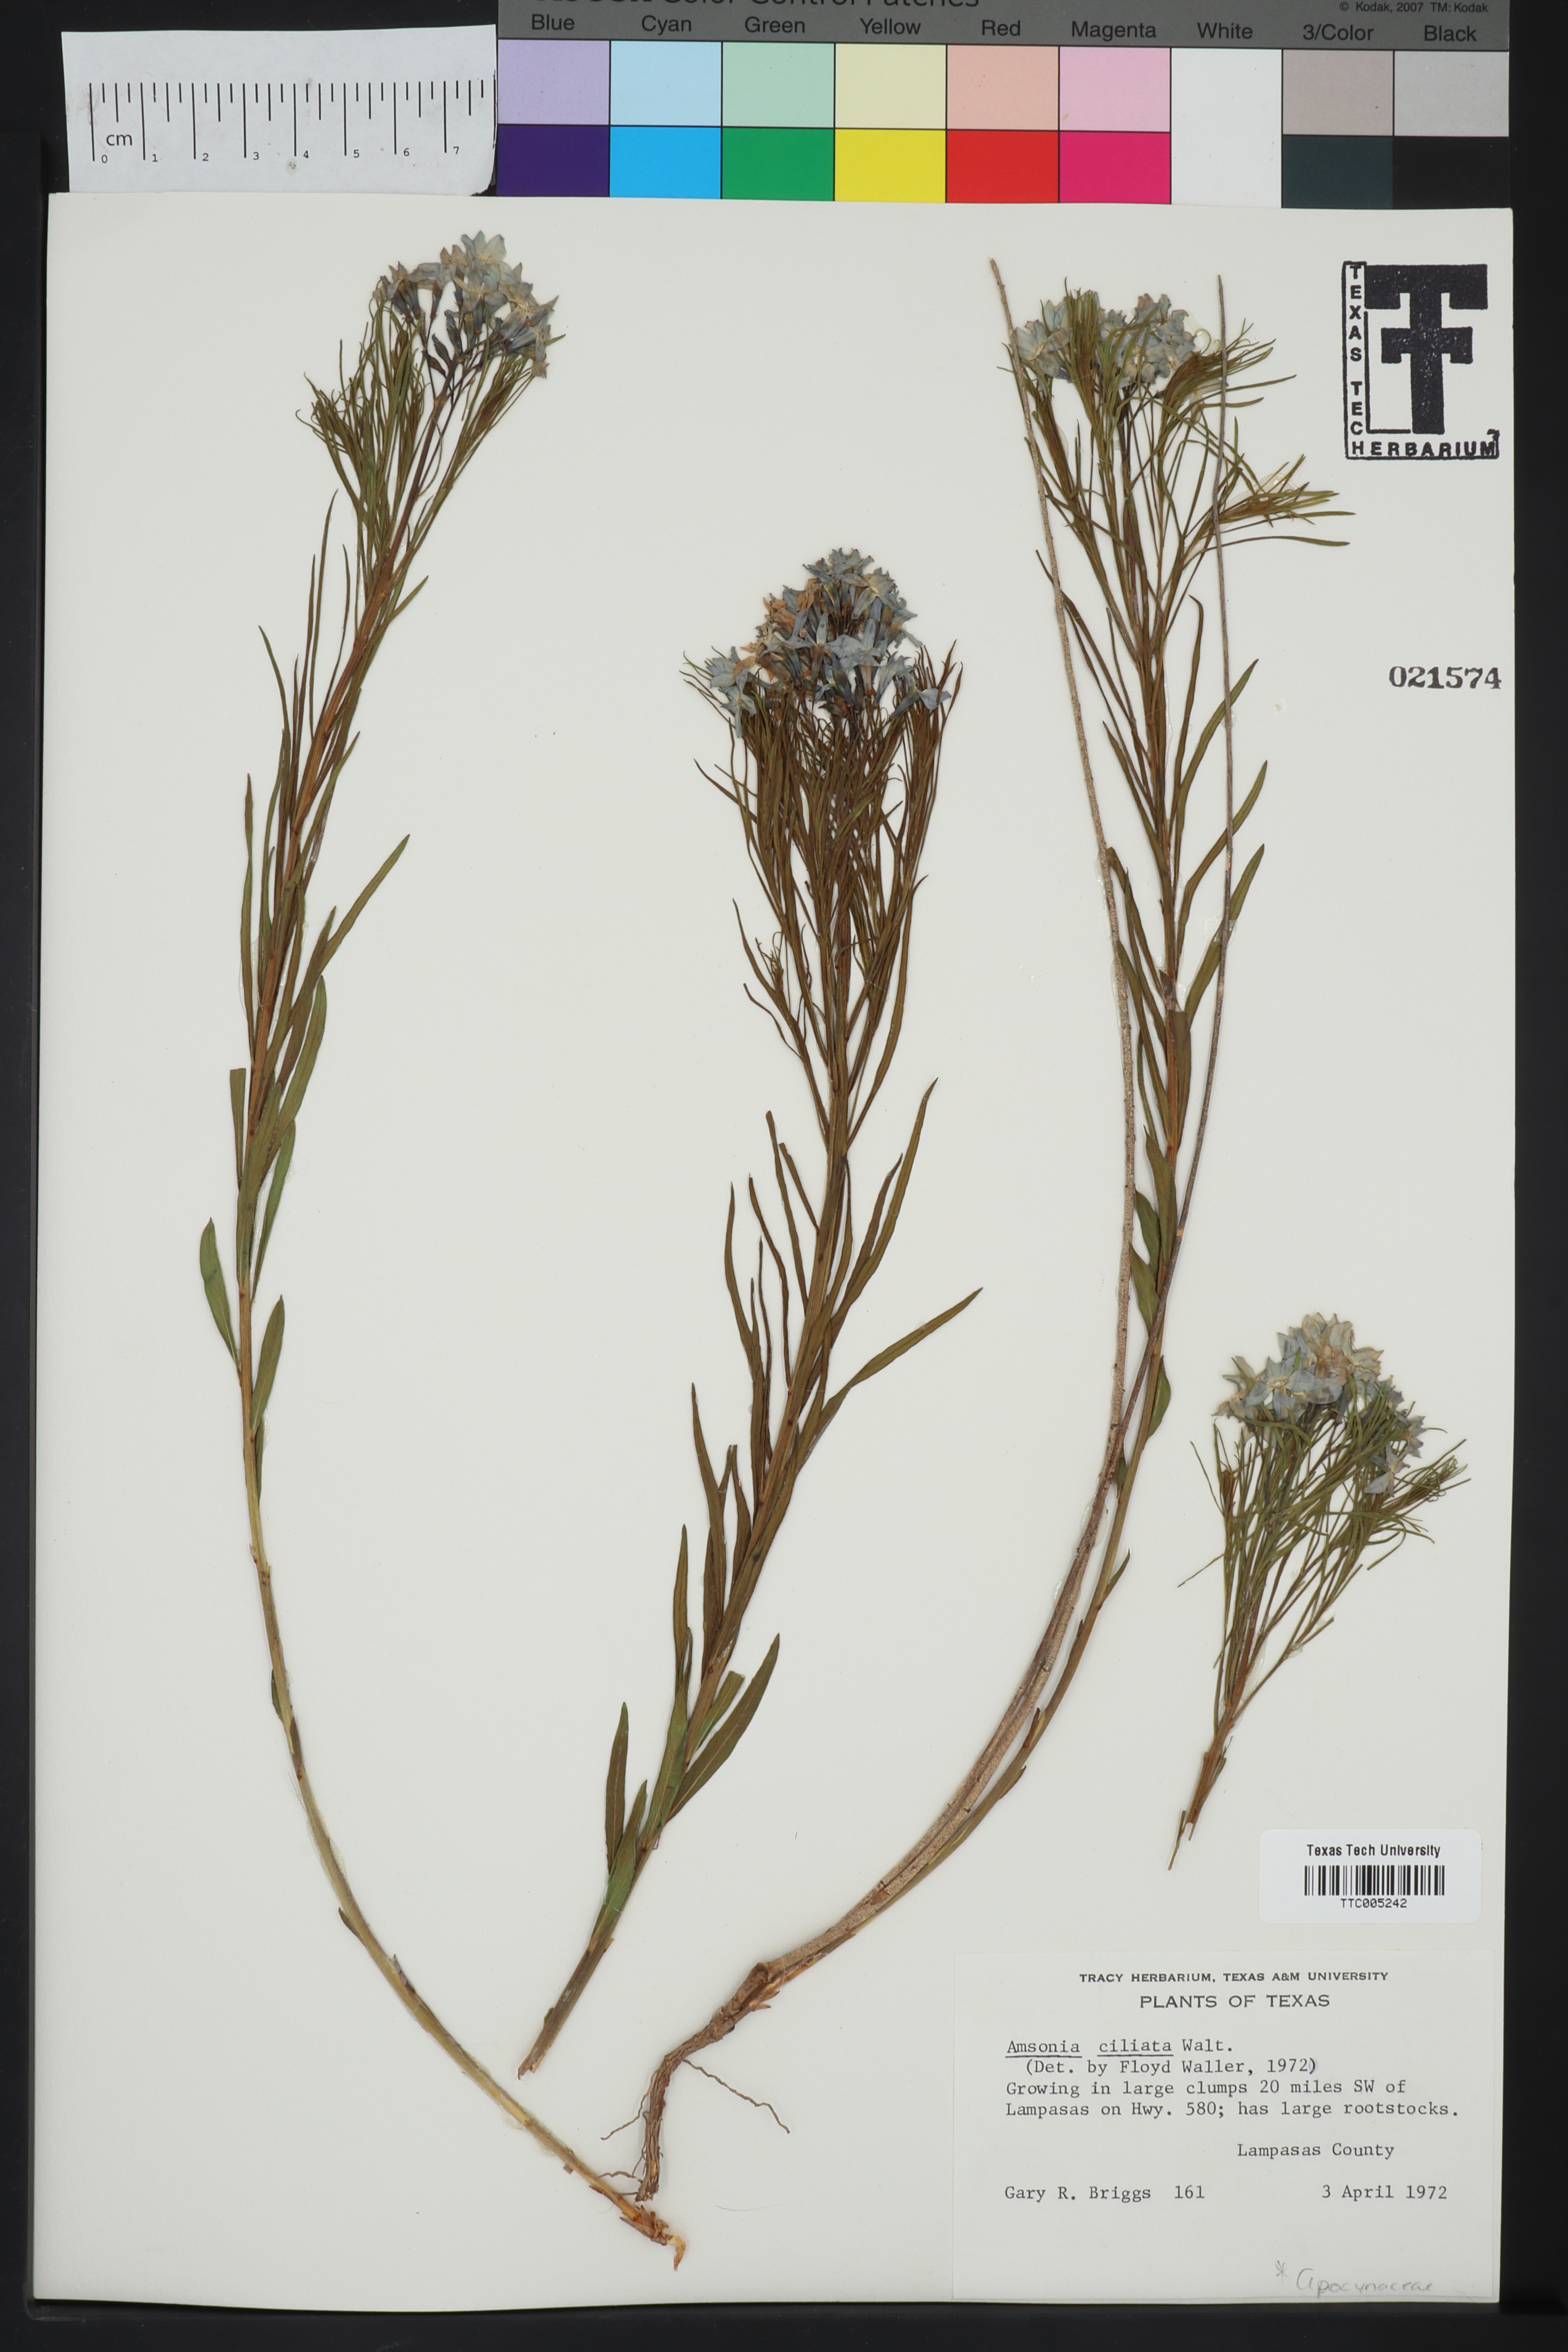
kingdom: Plantae
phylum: Tracheophyta
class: Magnoliopsida
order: Gentianales
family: Apocynaceae
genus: Amsonia
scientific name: Amsonia ciliata
